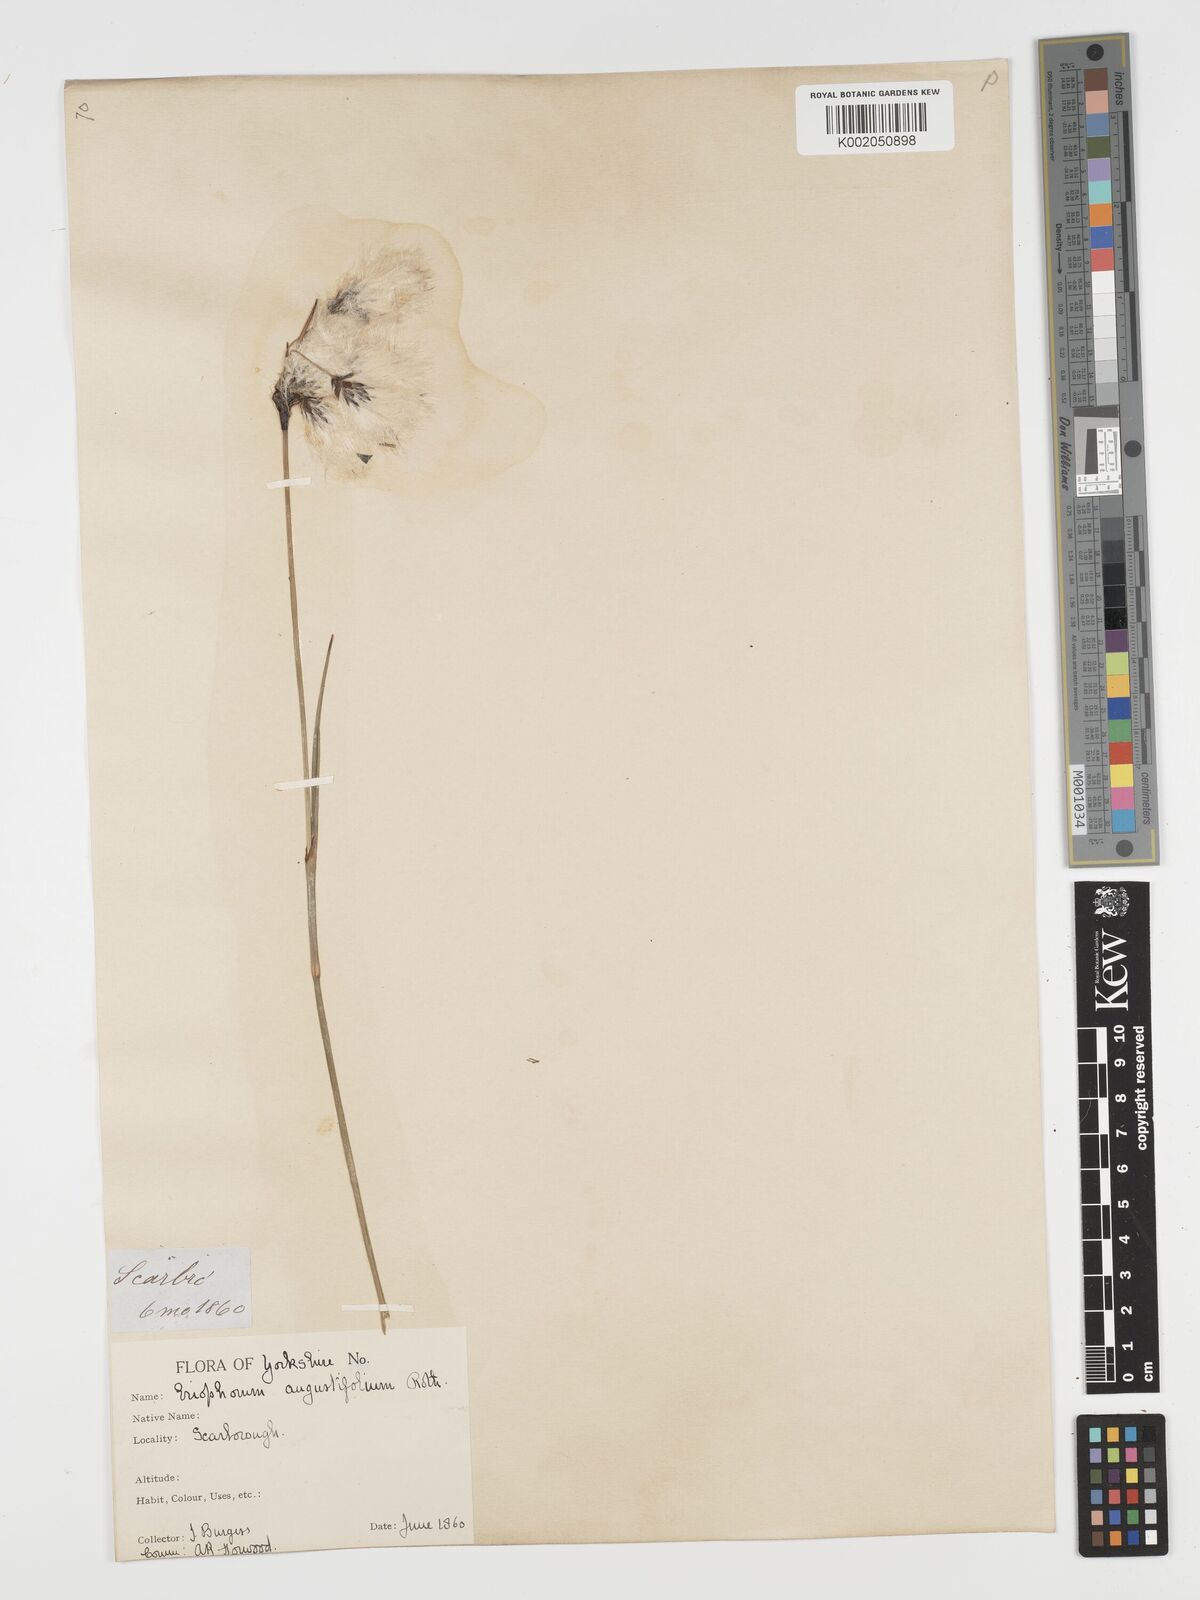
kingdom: Plantae
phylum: Tracheophyta
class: Liliopsida
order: Poales
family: Cyperaceae
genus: Eriophorum
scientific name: Eriophorum angustifolium
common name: Common cottongrass
